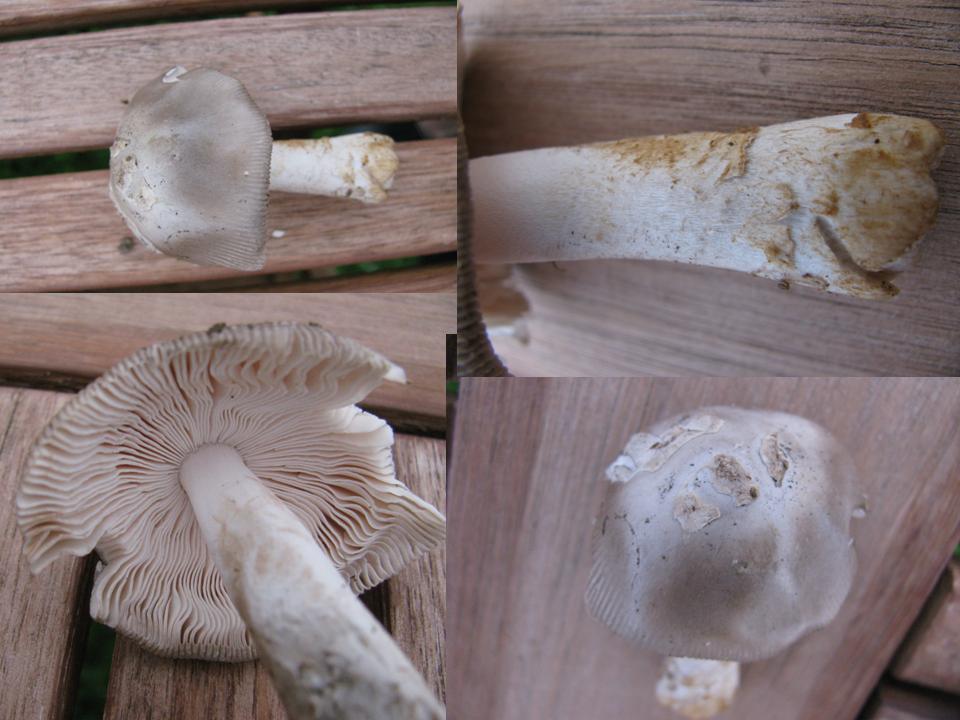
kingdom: Fungi
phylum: Basidiomycota
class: Agaricomycetes
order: Agaricales
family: Amanitaceae
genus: Amanita
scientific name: Amanita vaginata
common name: grå kam-fluesvamp
